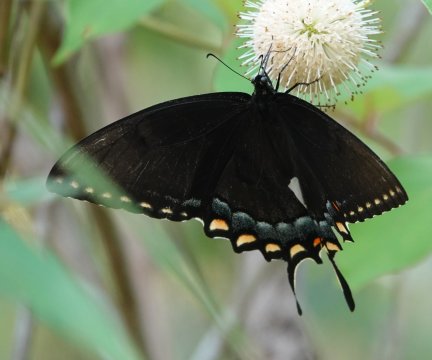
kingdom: Animalia
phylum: Arthropoda
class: Insecta
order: Lepidoptera
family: Papilionidae
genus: Papilio
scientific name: Papilio
